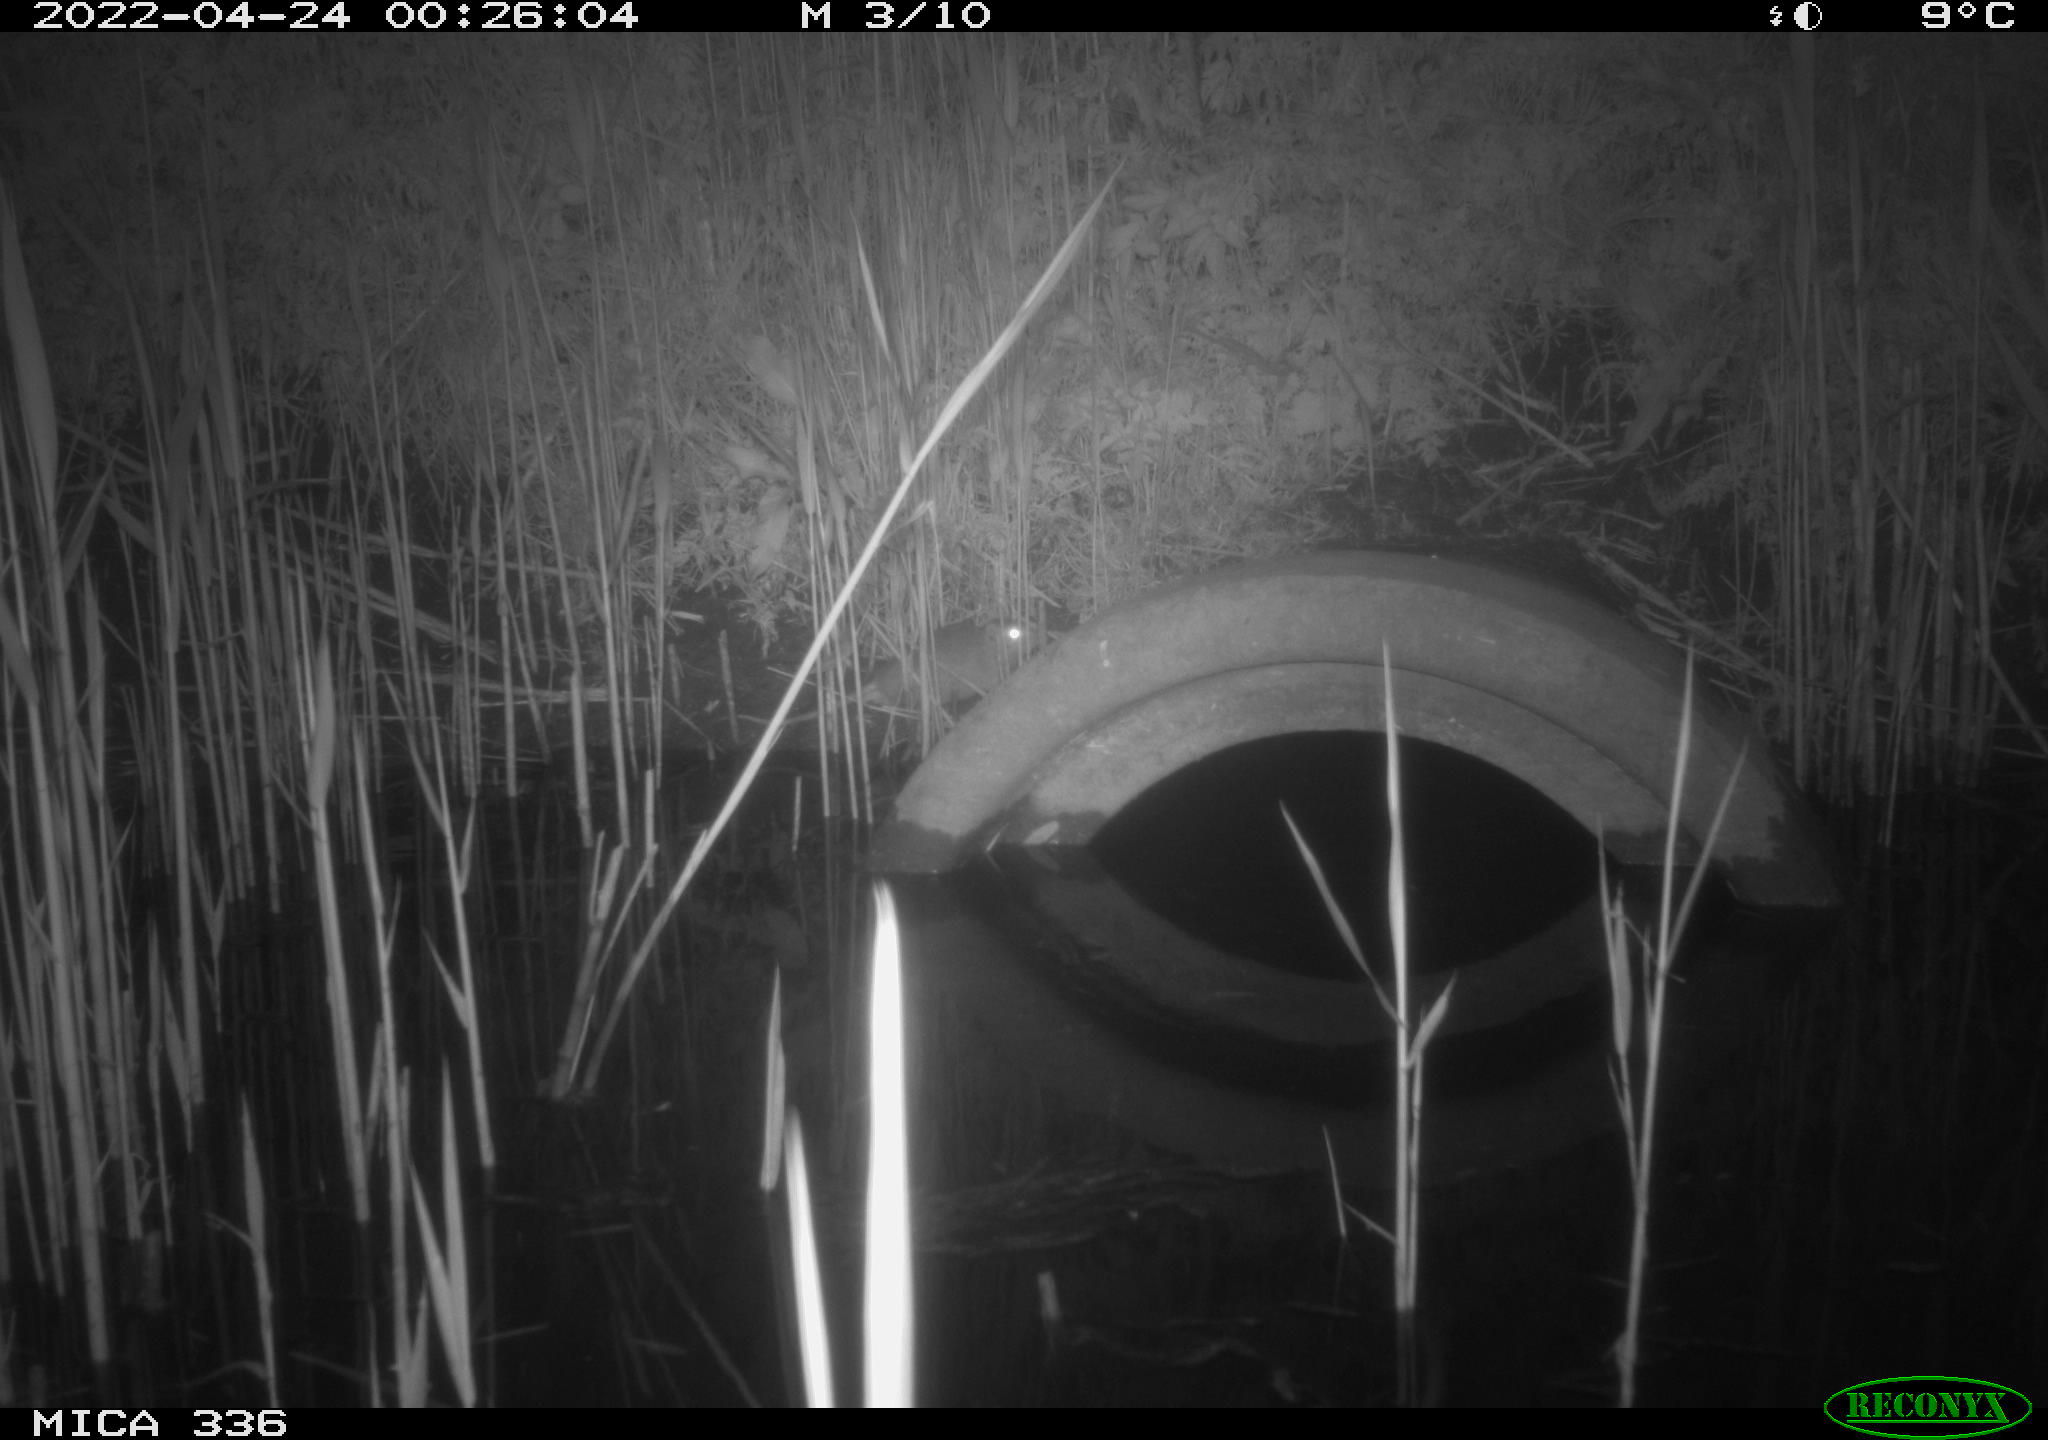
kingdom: Animalia
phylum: Chordata
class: Mammalia
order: Rodentia
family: Muridae
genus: Rattus
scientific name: Rattus norvegicus
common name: Brown rat
